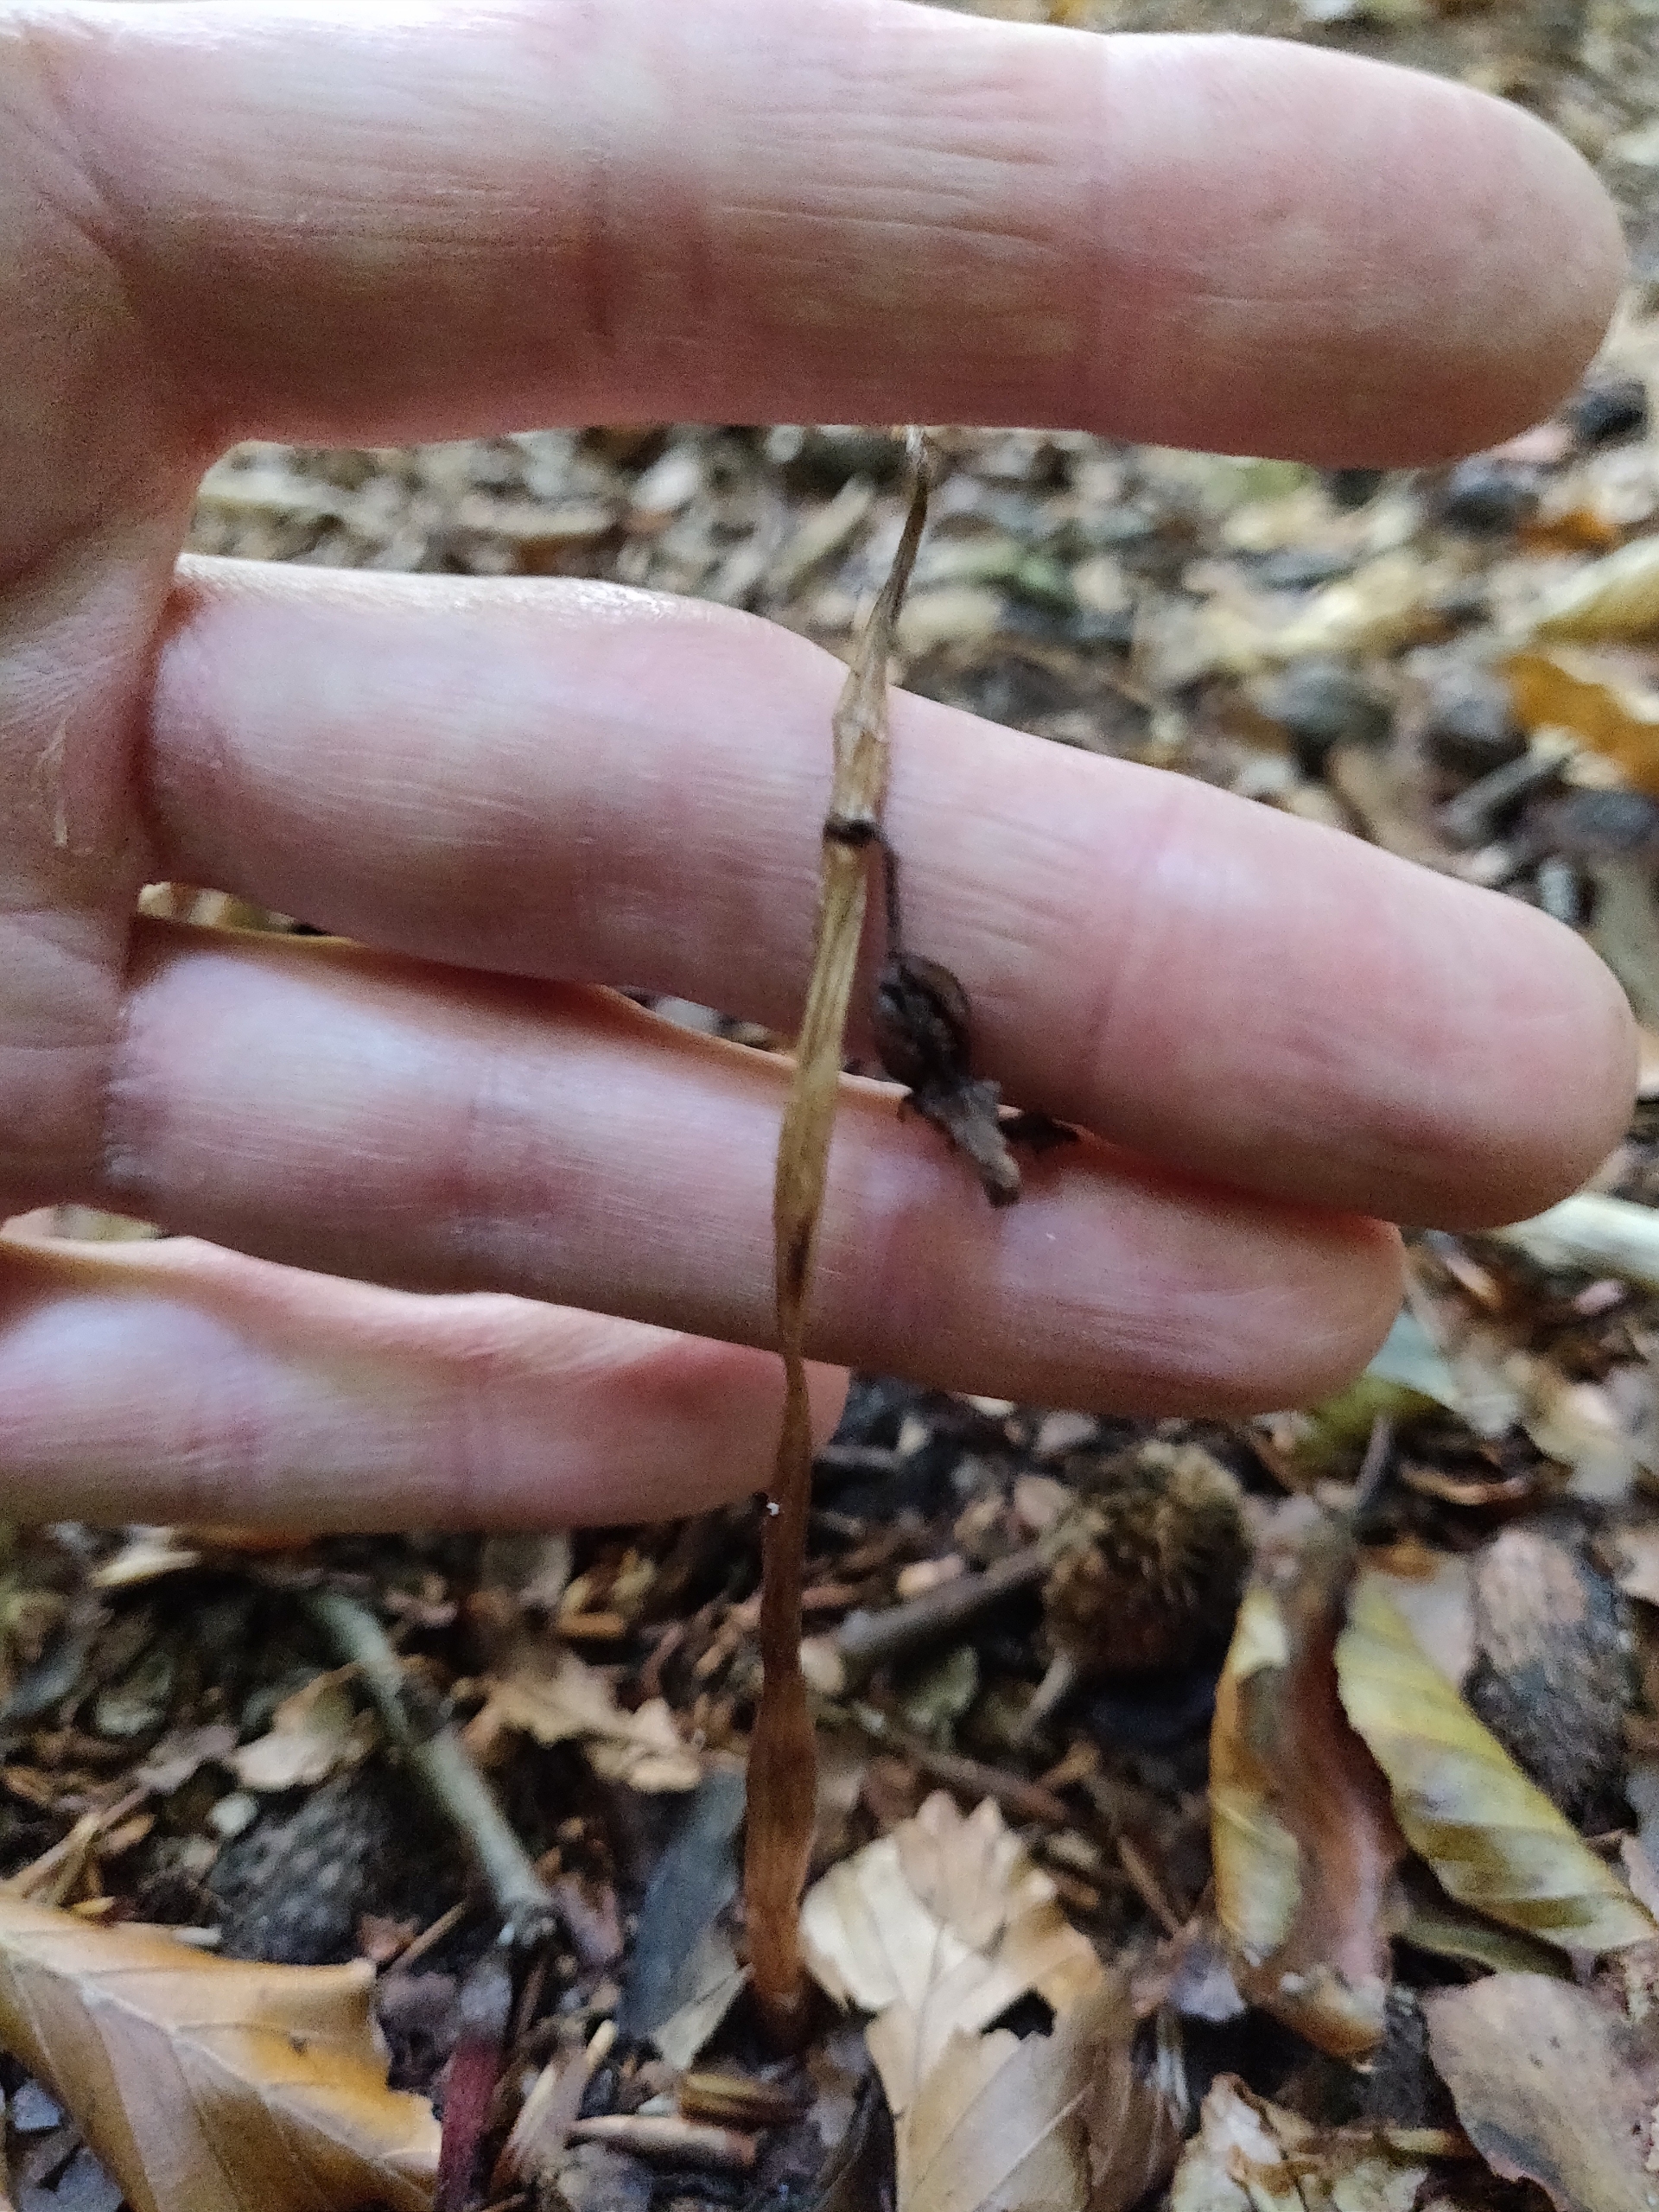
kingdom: Plantae
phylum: Tracheophyta
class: Liliopsida
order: Asparagales
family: Orchidaceae
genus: Epipogium
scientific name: Epipogium aphyllum
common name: Knælæbe
